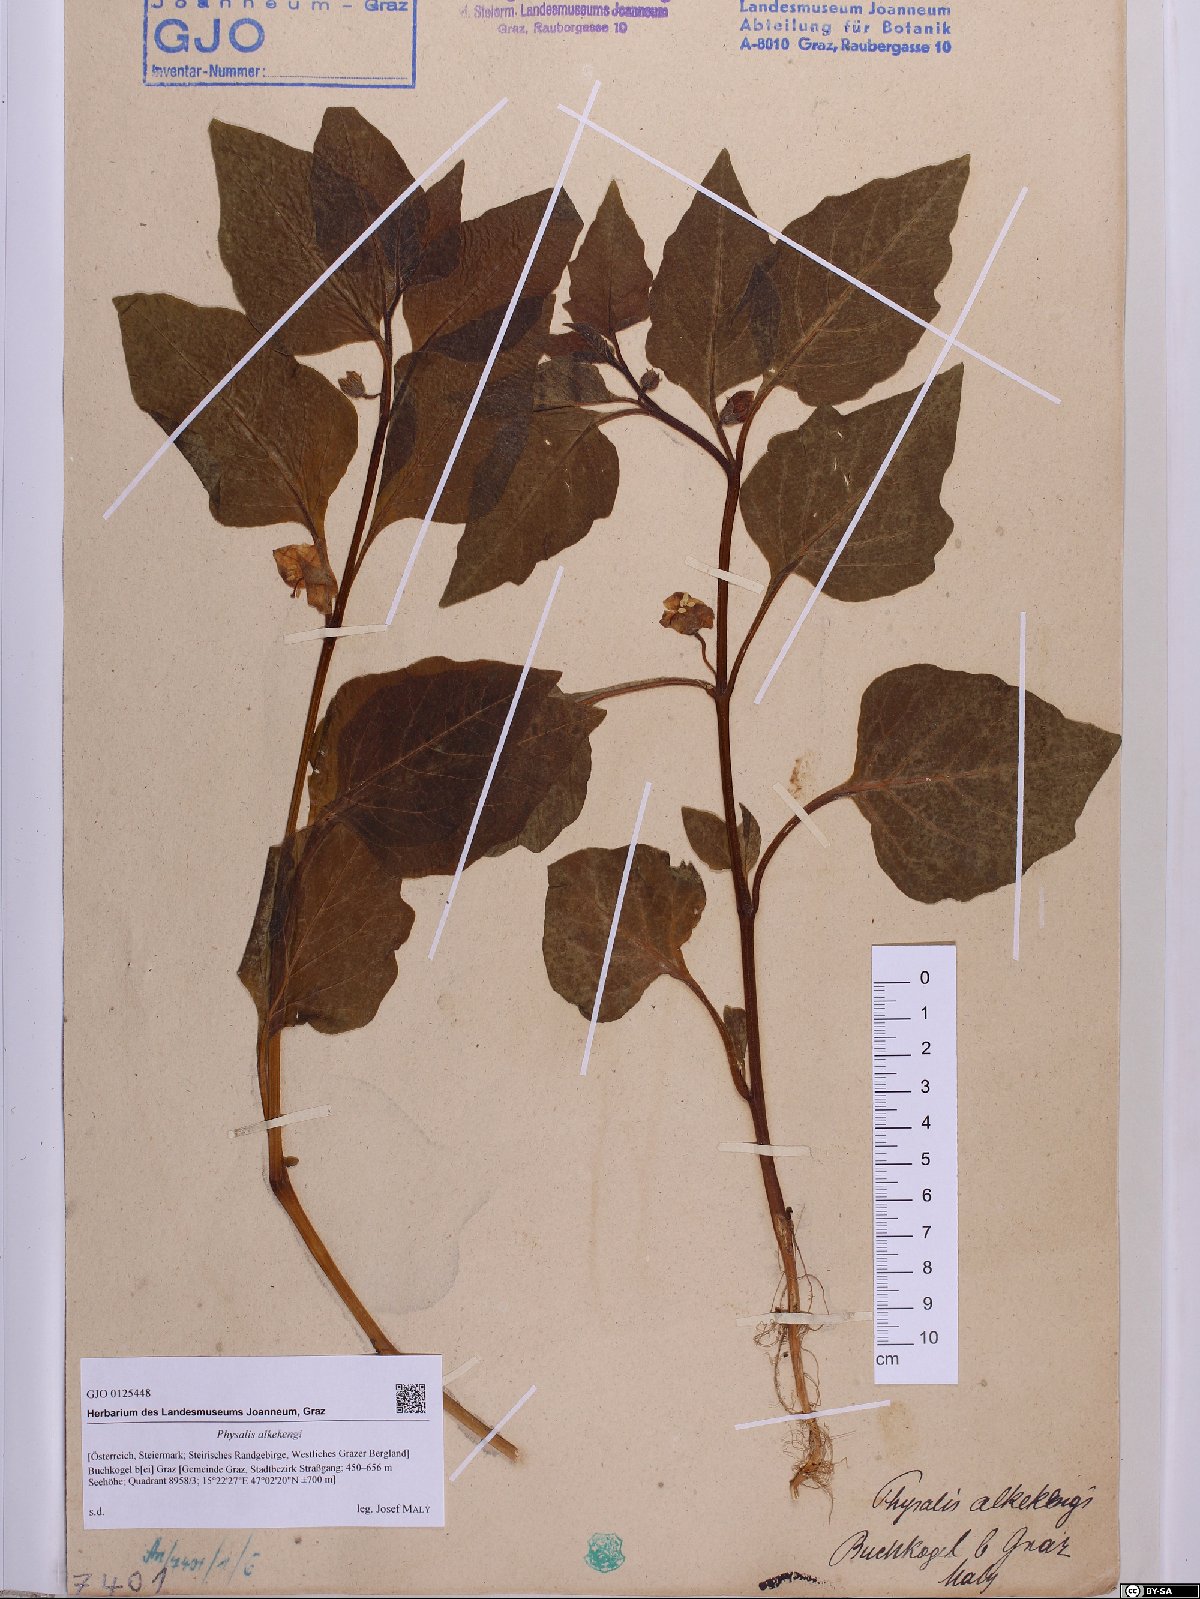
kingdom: Plantae
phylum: Tracheophyta
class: Magnoliopsida
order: Solanales
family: Solanaceae
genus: Alkekengi
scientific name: Alkekengi officinarum
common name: Japanese-lantern
